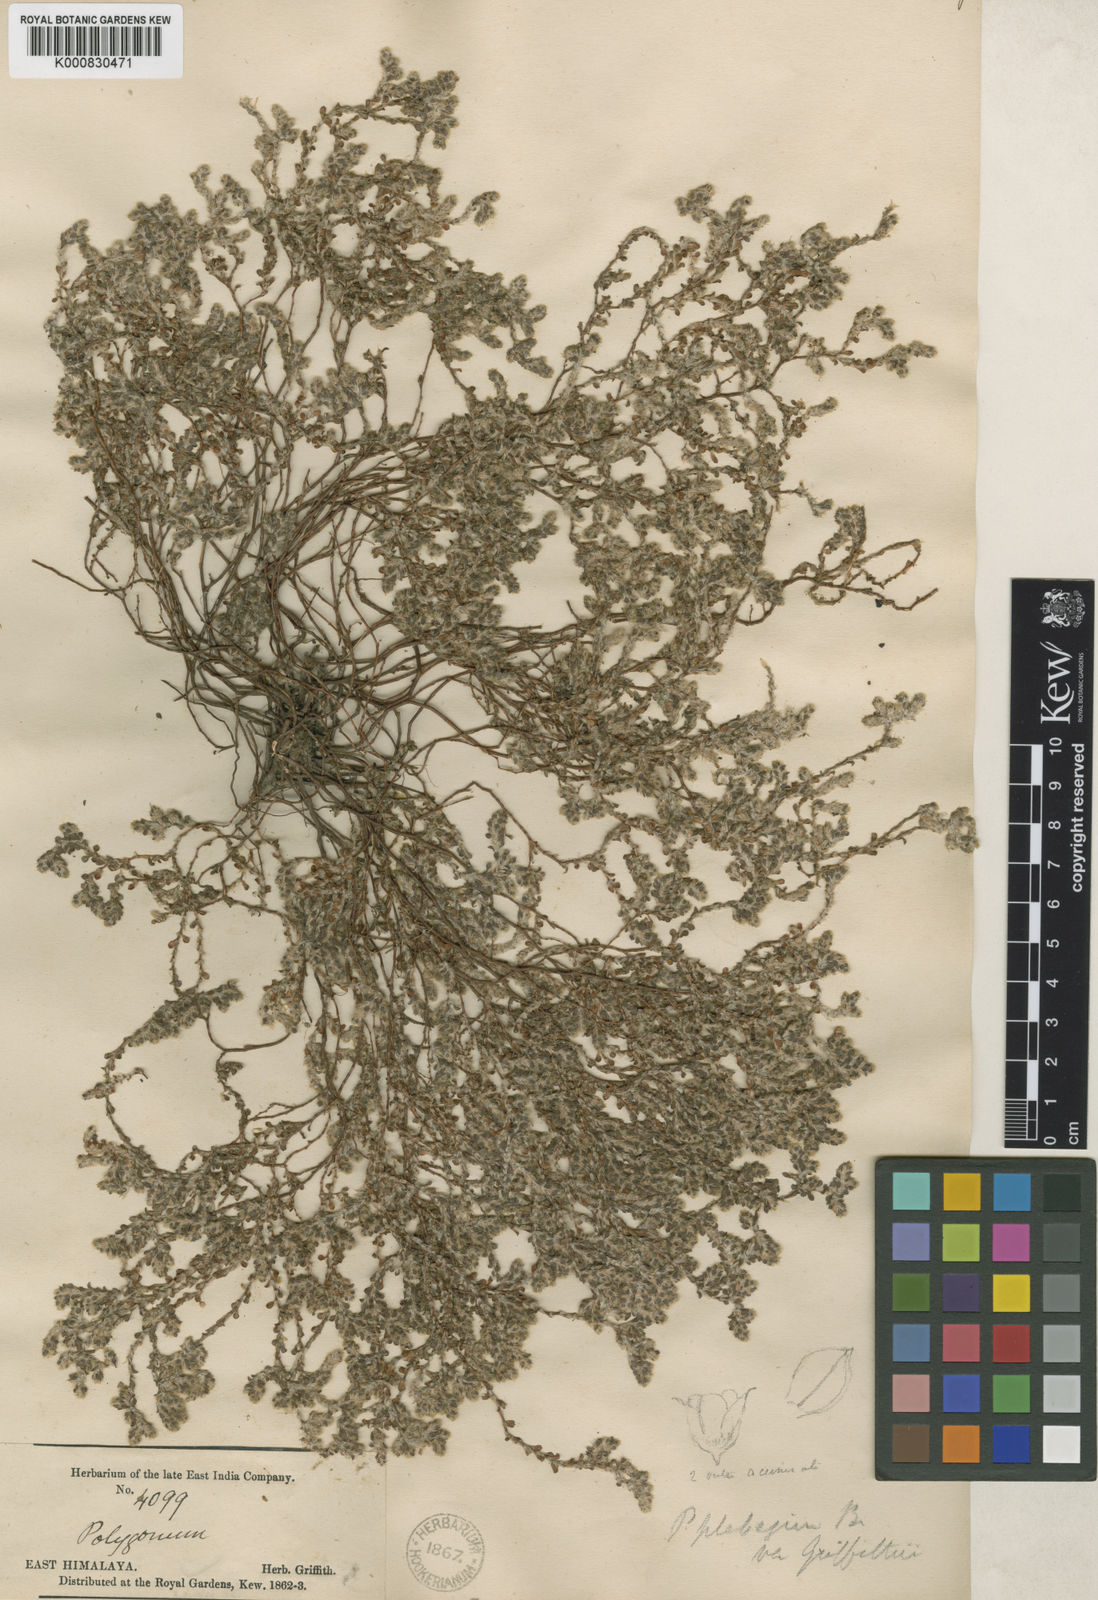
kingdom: Plantae
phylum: Tracheophyta
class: Magnoliopsida
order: Caryophyllales
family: Polygonaceae
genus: Polygonum
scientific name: Polygonum plebeium
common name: Common knotweed
